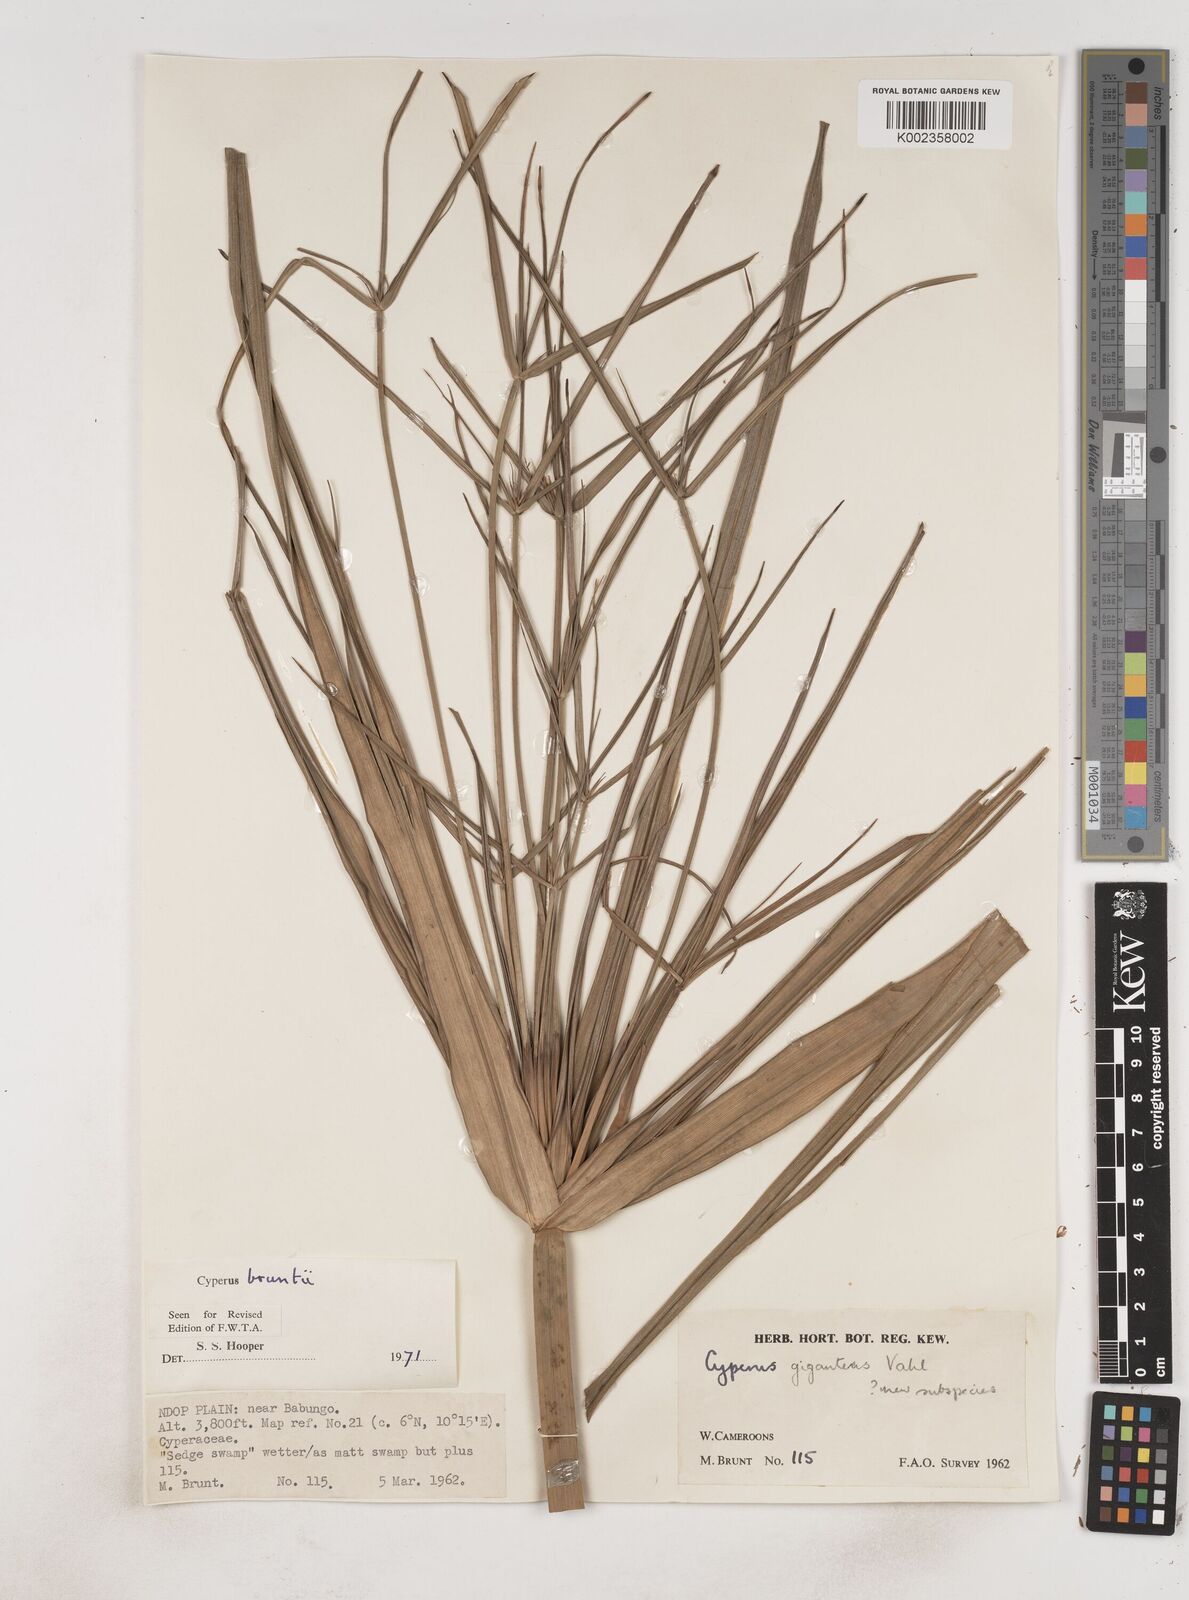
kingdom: Plantae
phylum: Tracheophyta
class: Liliopsida
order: Poales
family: Cyperaceae
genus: Cyperus
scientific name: Cyperus
